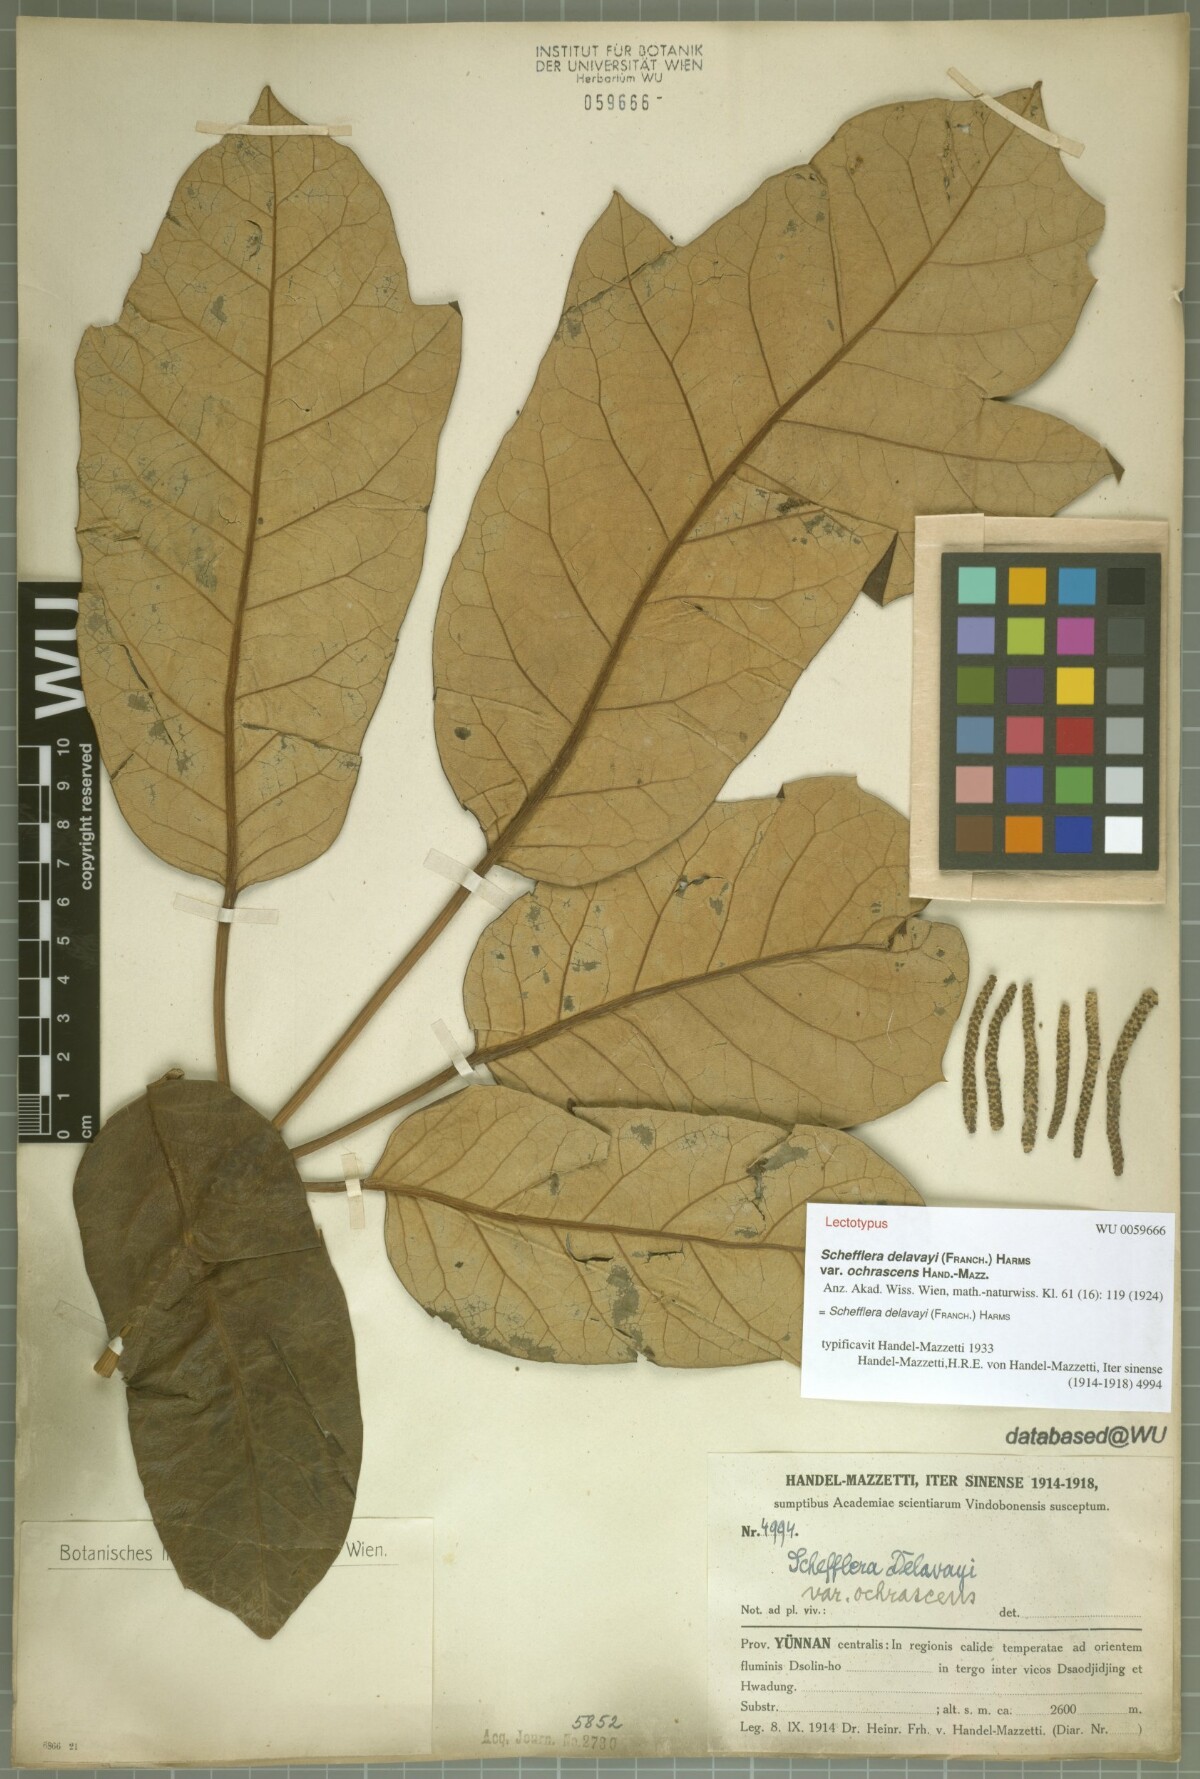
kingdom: Plantae
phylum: Tracheophyta
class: Magnoliopsida
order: Apiales
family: Araliaceae
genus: Heptapleurum
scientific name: Heptapleurum delavayi
